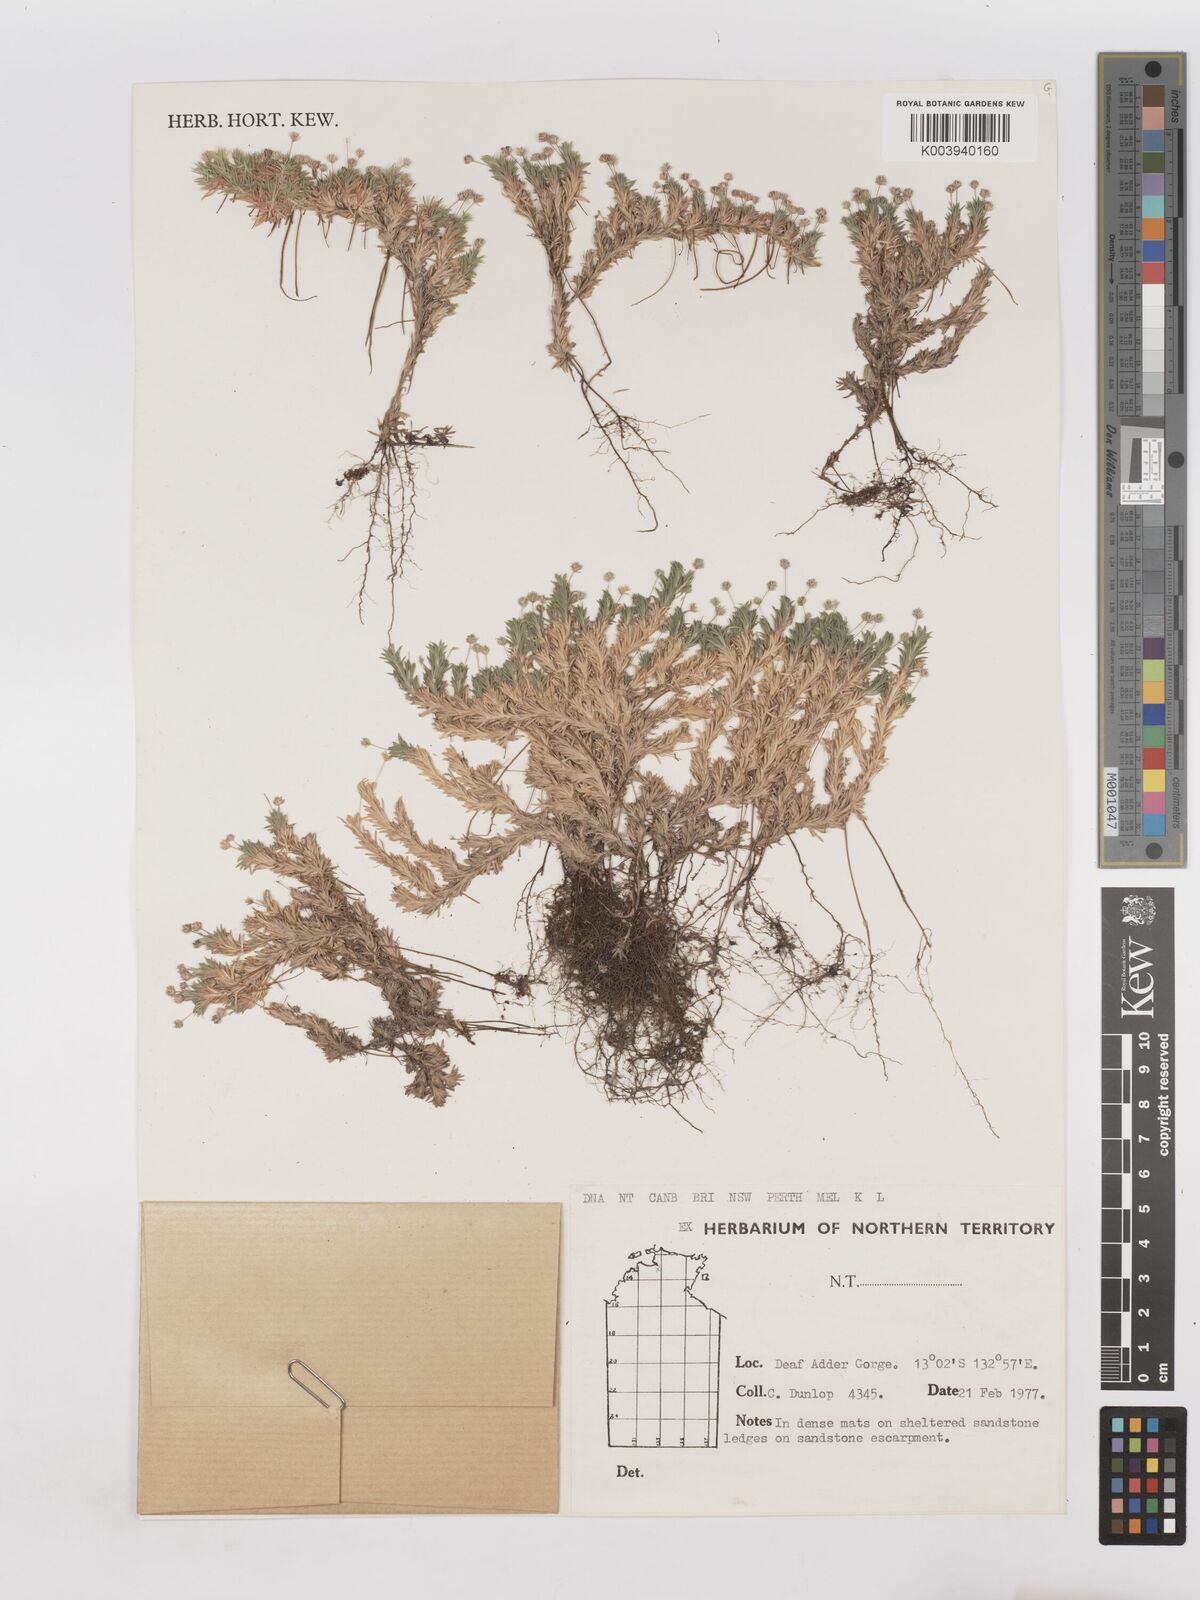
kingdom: Plantae
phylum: Tracheophyta
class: Liliopsida
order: Poales
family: Poaceae
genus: Micraira
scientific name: Micraira subspicata
